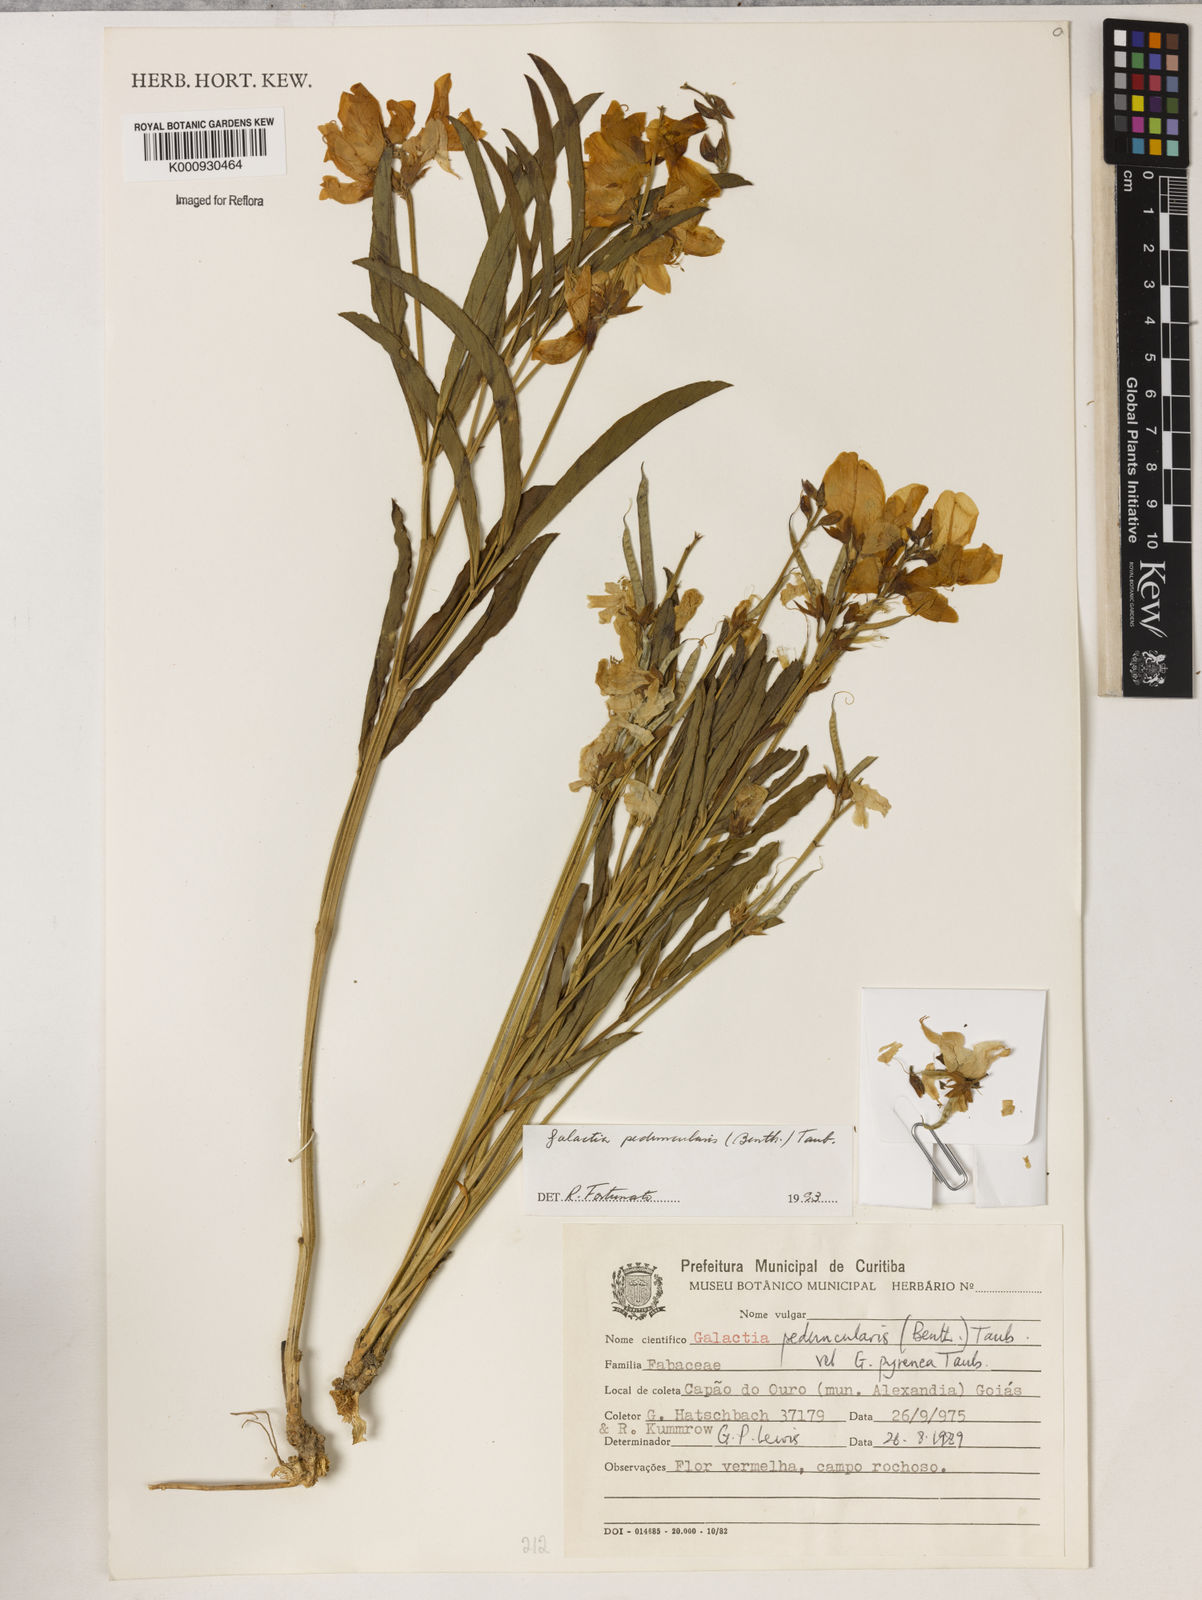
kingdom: Plantae
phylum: Tracheophyta
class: Magnoliopsida
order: Fabales
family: Fabaceae
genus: Galactia
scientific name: Galactia
